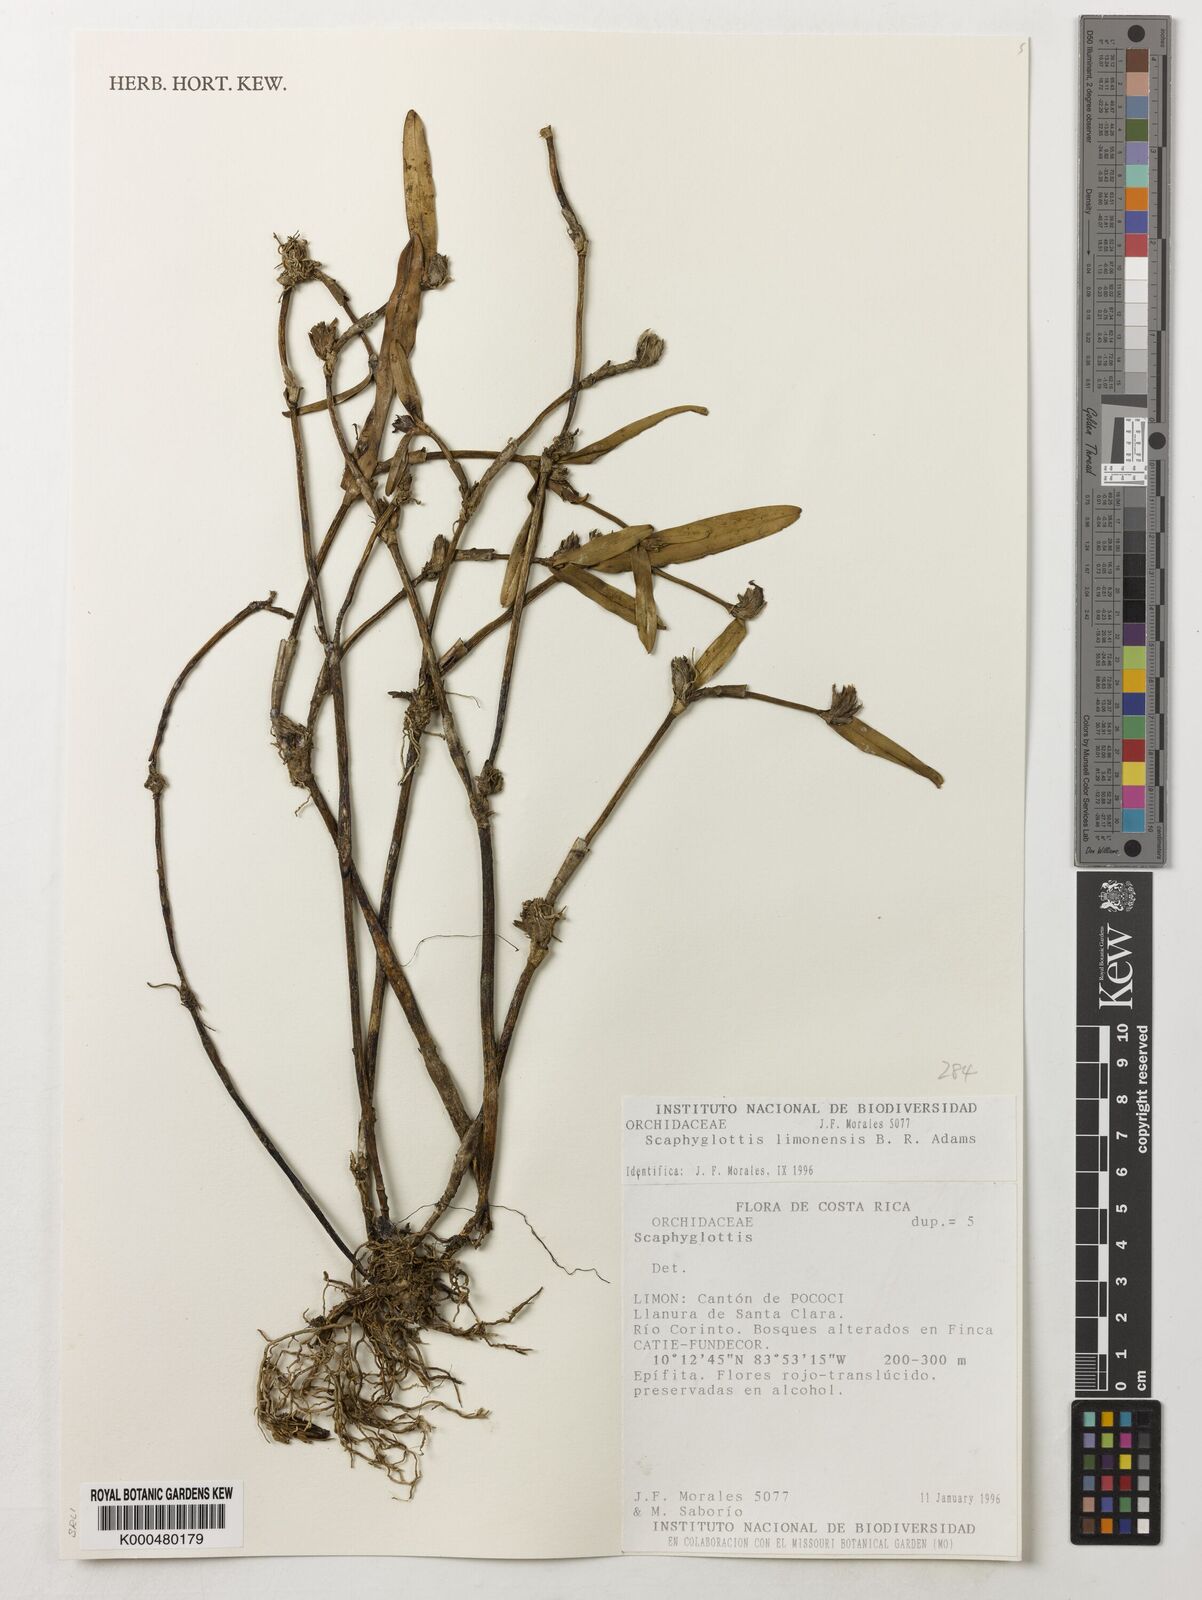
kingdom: Plantae
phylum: Tracheophyta
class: Liliopsida
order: Asparagales
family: Orchidaceae
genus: Scaphyglottis
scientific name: Scaphyglottis limonensis
